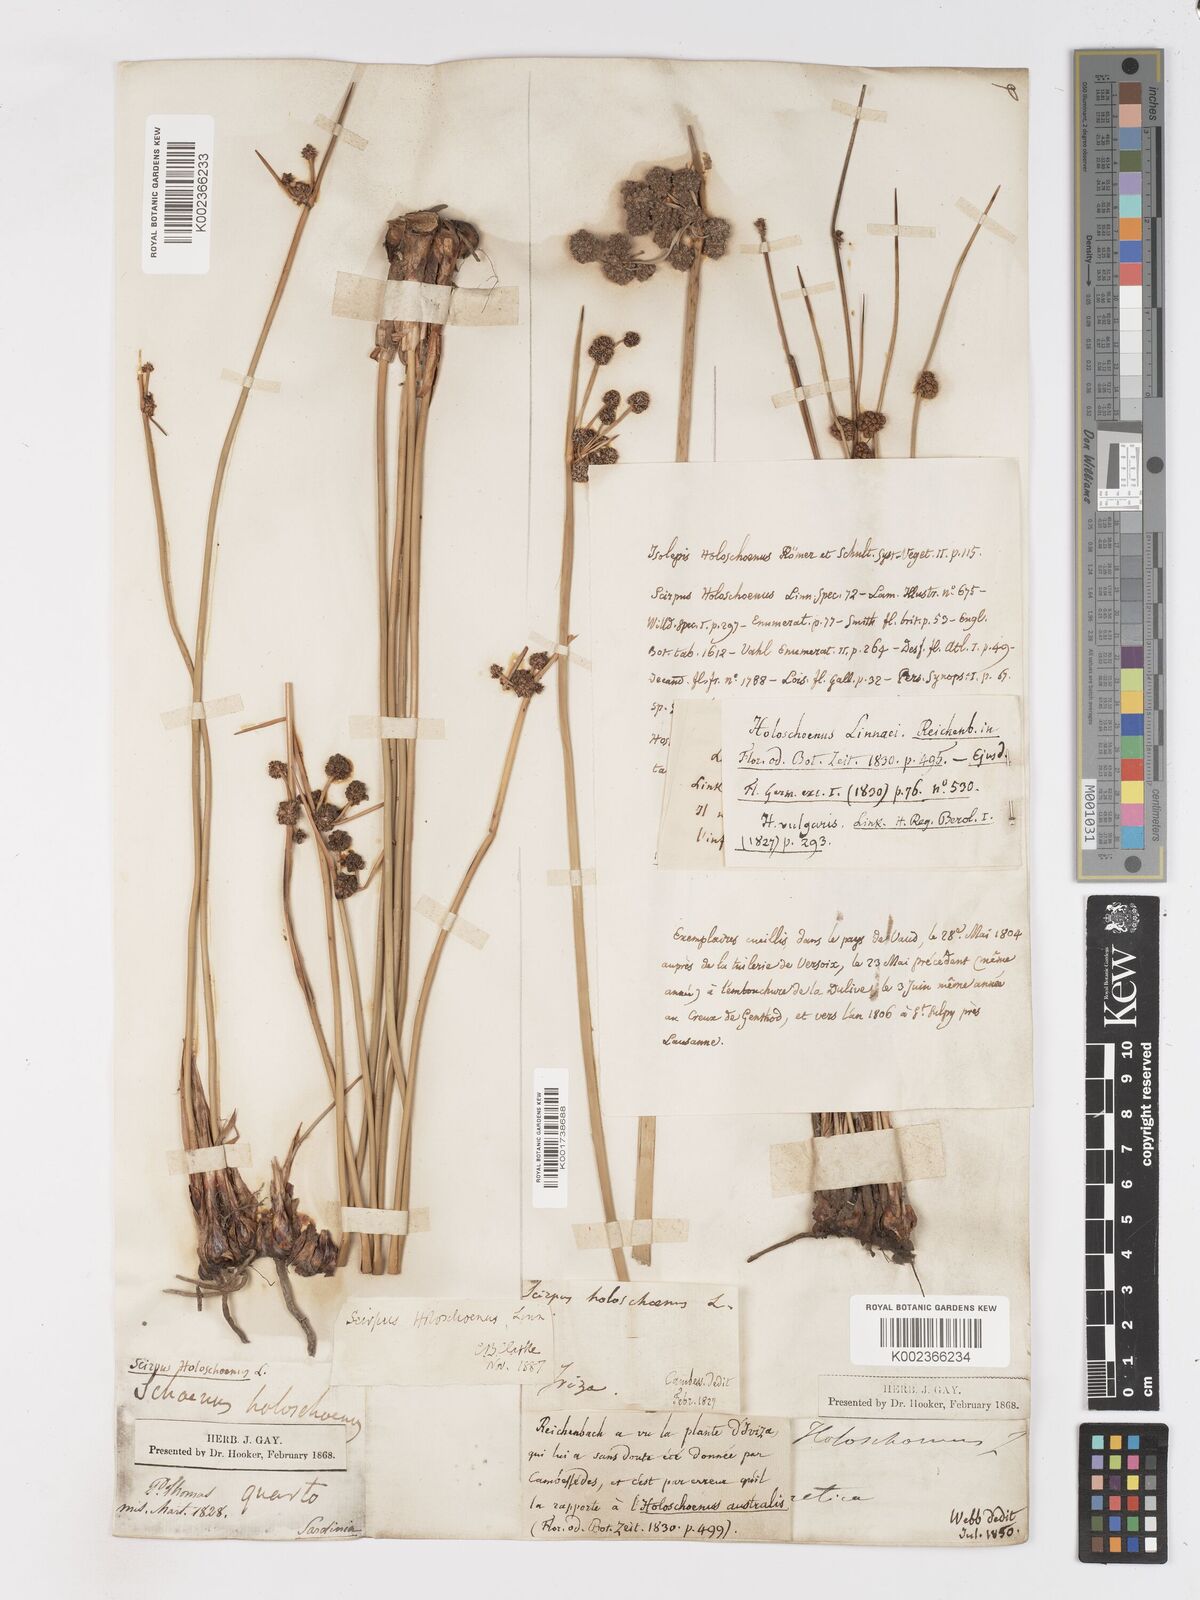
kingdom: Plantae
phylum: Tracheophyta
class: Liliopsida
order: Poales
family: Cyperaceae
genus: Scirpoides
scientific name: Scirpoides holoschoenus
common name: Round-headed club-rush
